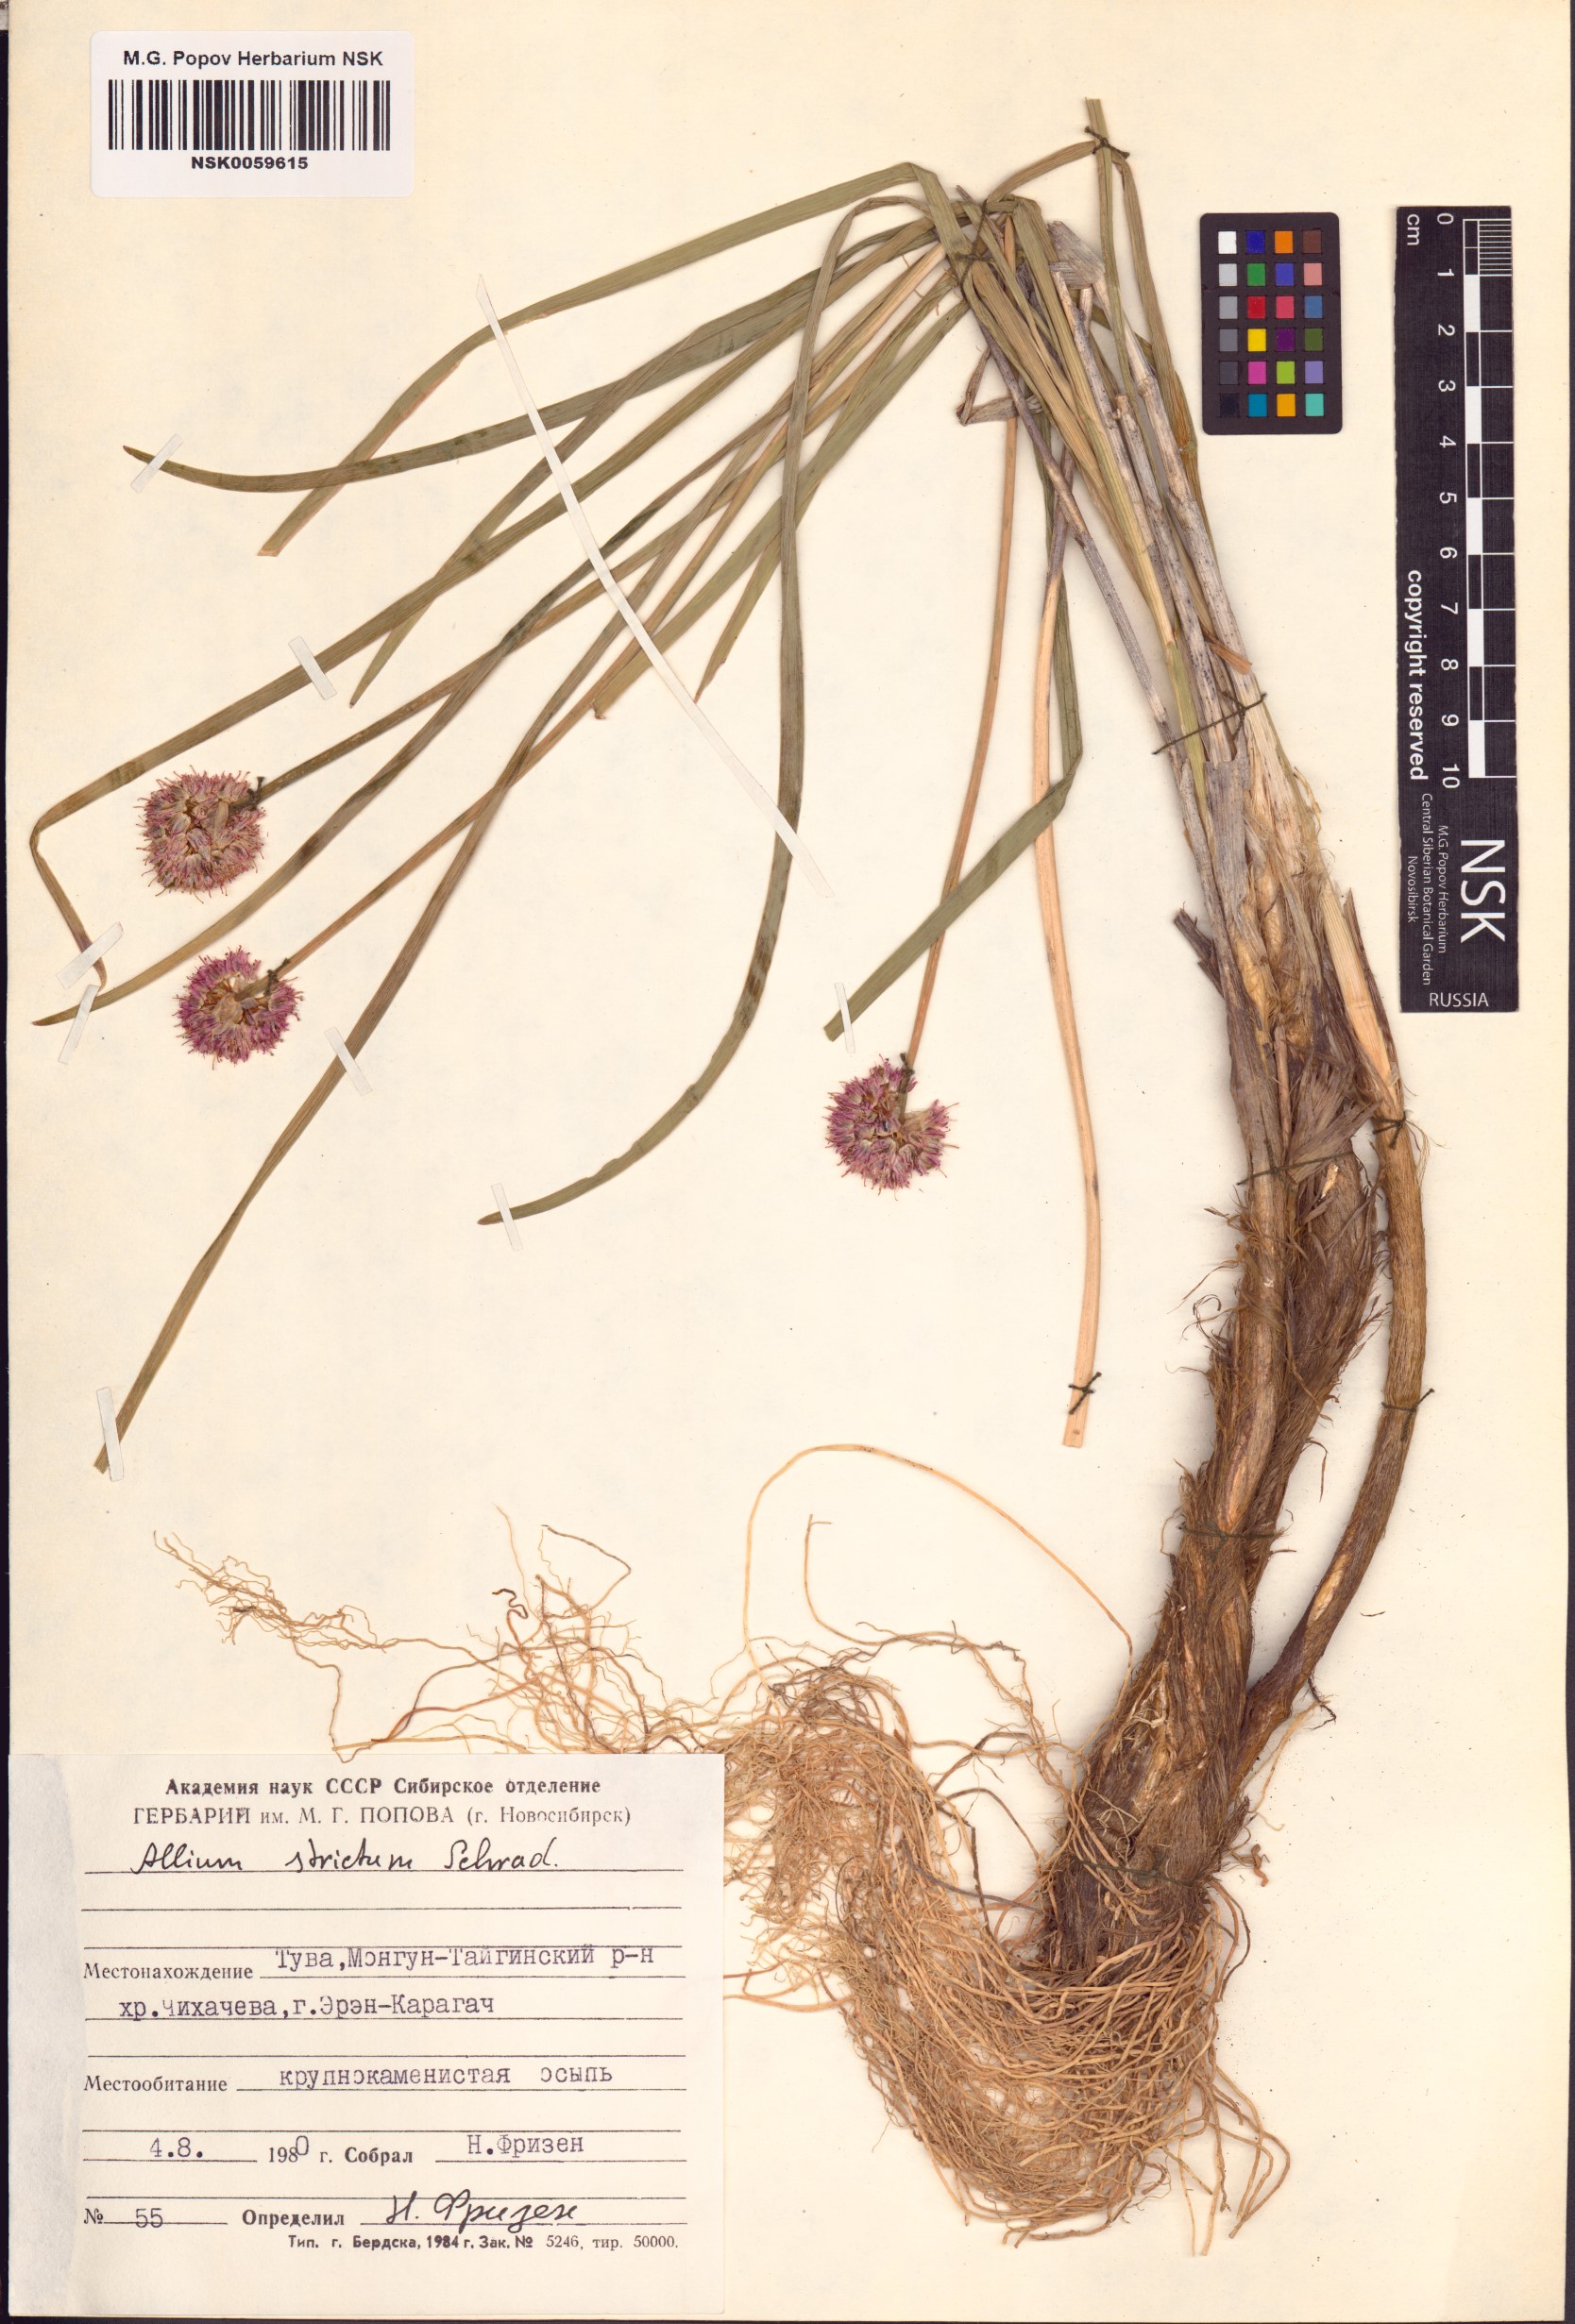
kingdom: Plantae
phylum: Tracheophyta
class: Liliopsida
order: Asparagales
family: Amaryllidaceae
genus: Allium
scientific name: Allium strictum
